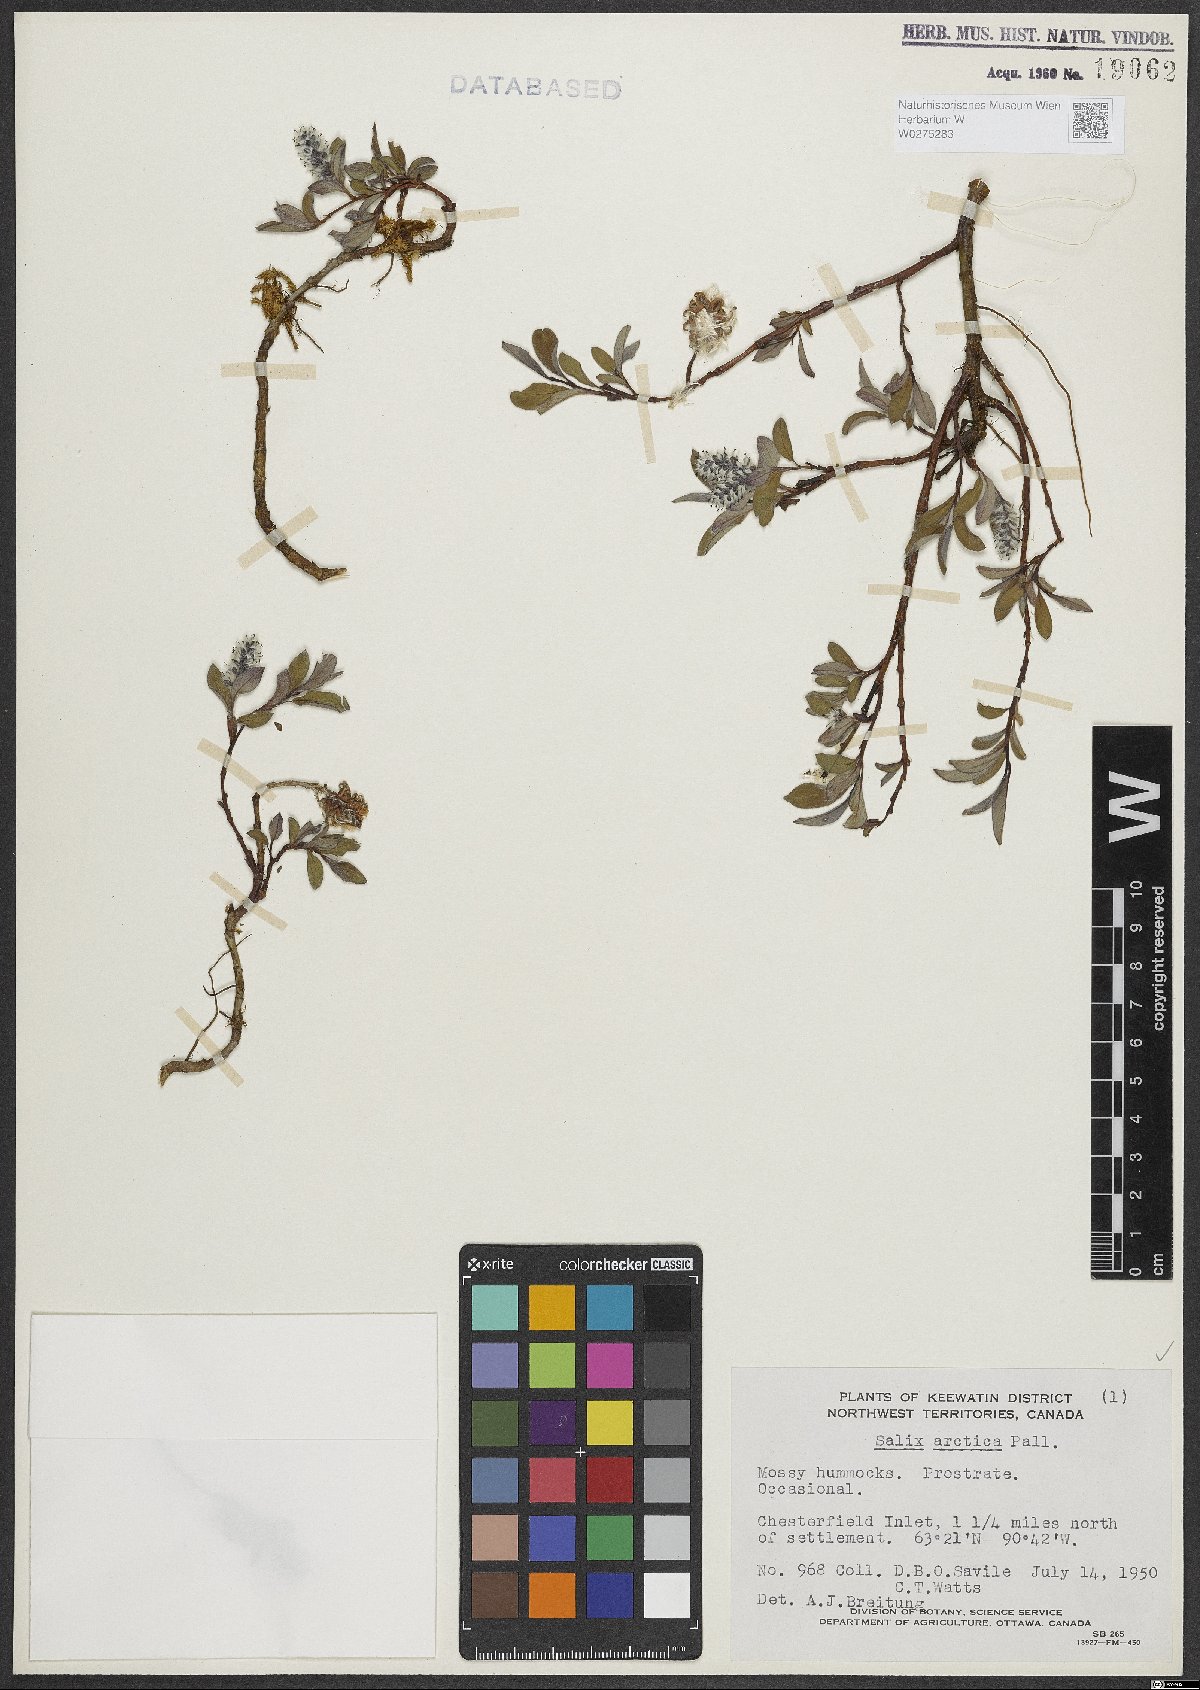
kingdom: Plantae
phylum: Tracheophyta
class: Magnoliopsida
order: Malpighiales
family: Salicaceae
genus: Salix
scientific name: Salix arctica
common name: Arctic willow
